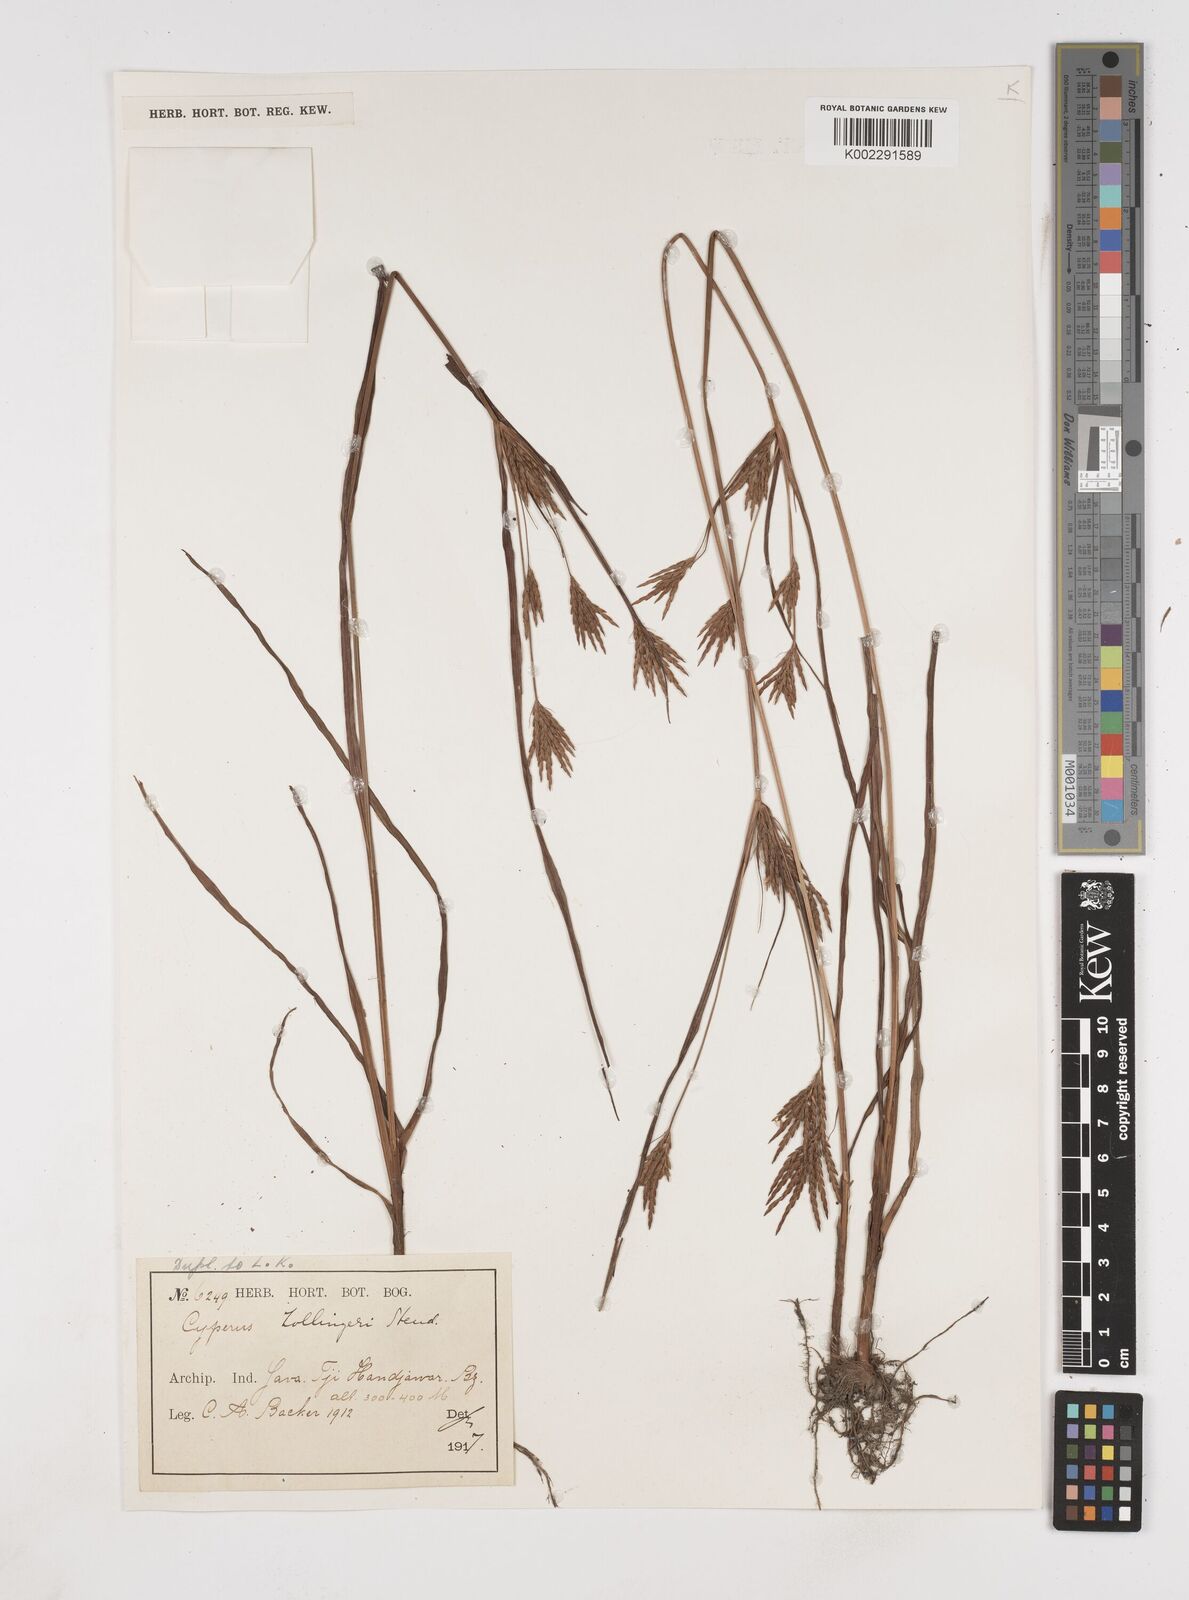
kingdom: Plantae
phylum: Tracheophyta
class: Liliopsida
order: Poales
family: Cyperaceae
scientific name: Cyperaceae
